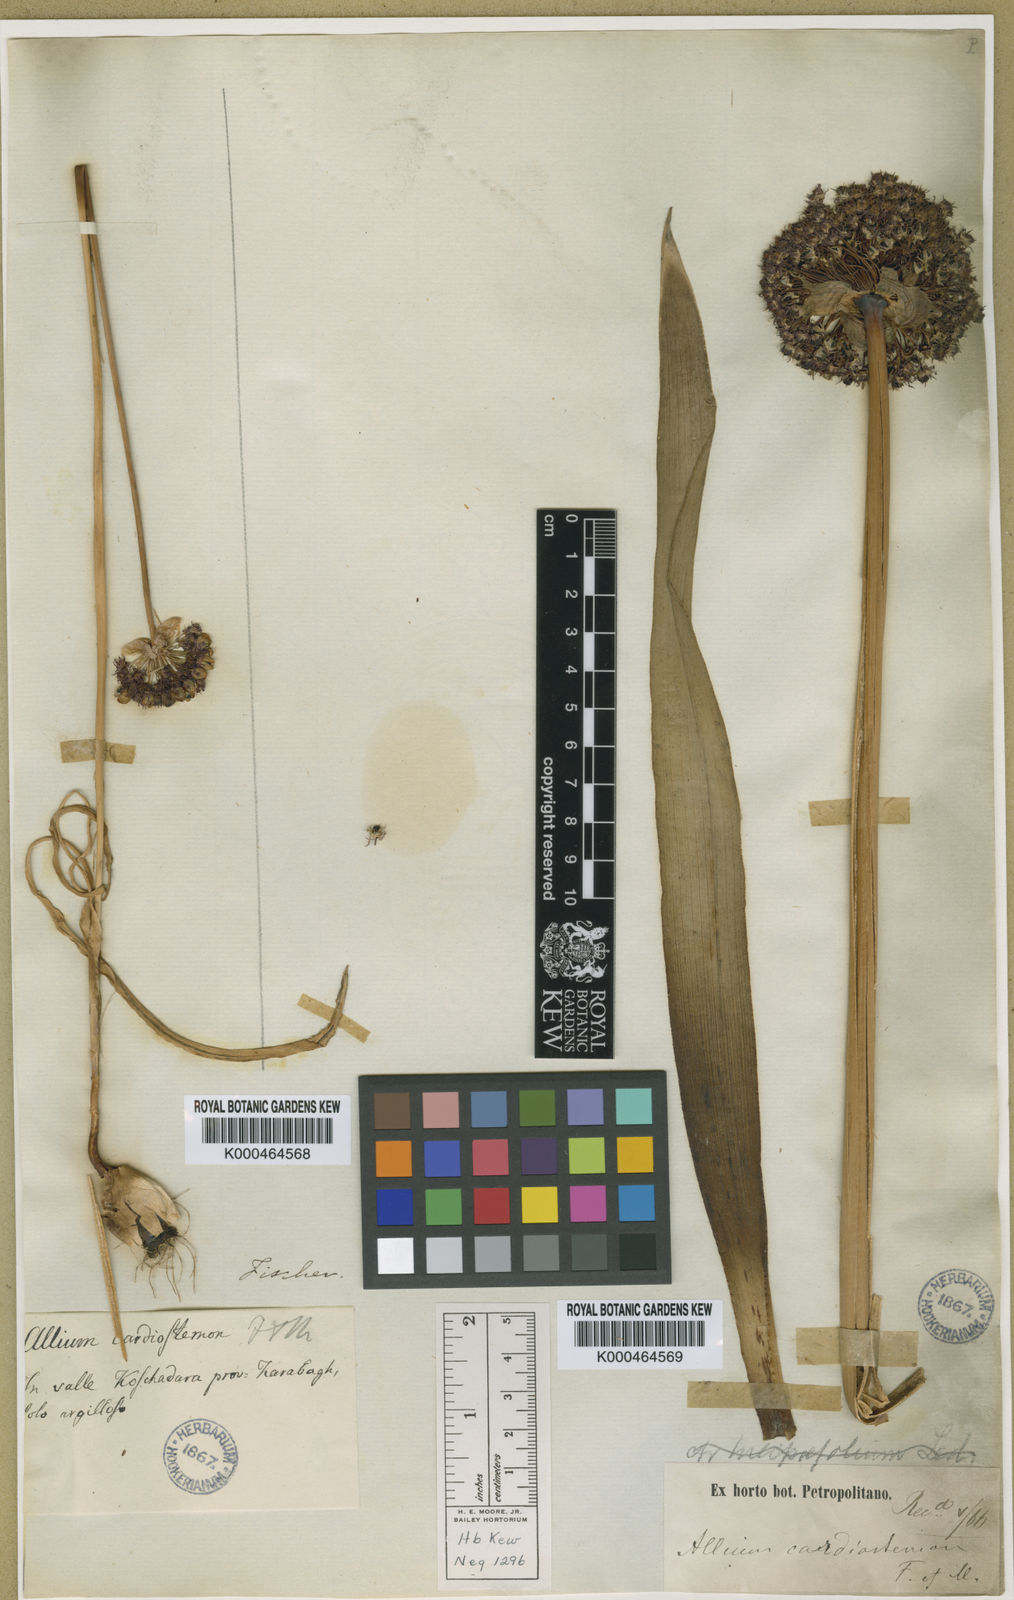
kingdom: Plantae
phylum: Tracheophyta
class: Liliopsida
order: Asparagales
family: Amaryllidaceae
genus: Allium
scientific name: Allium cardiostemon
